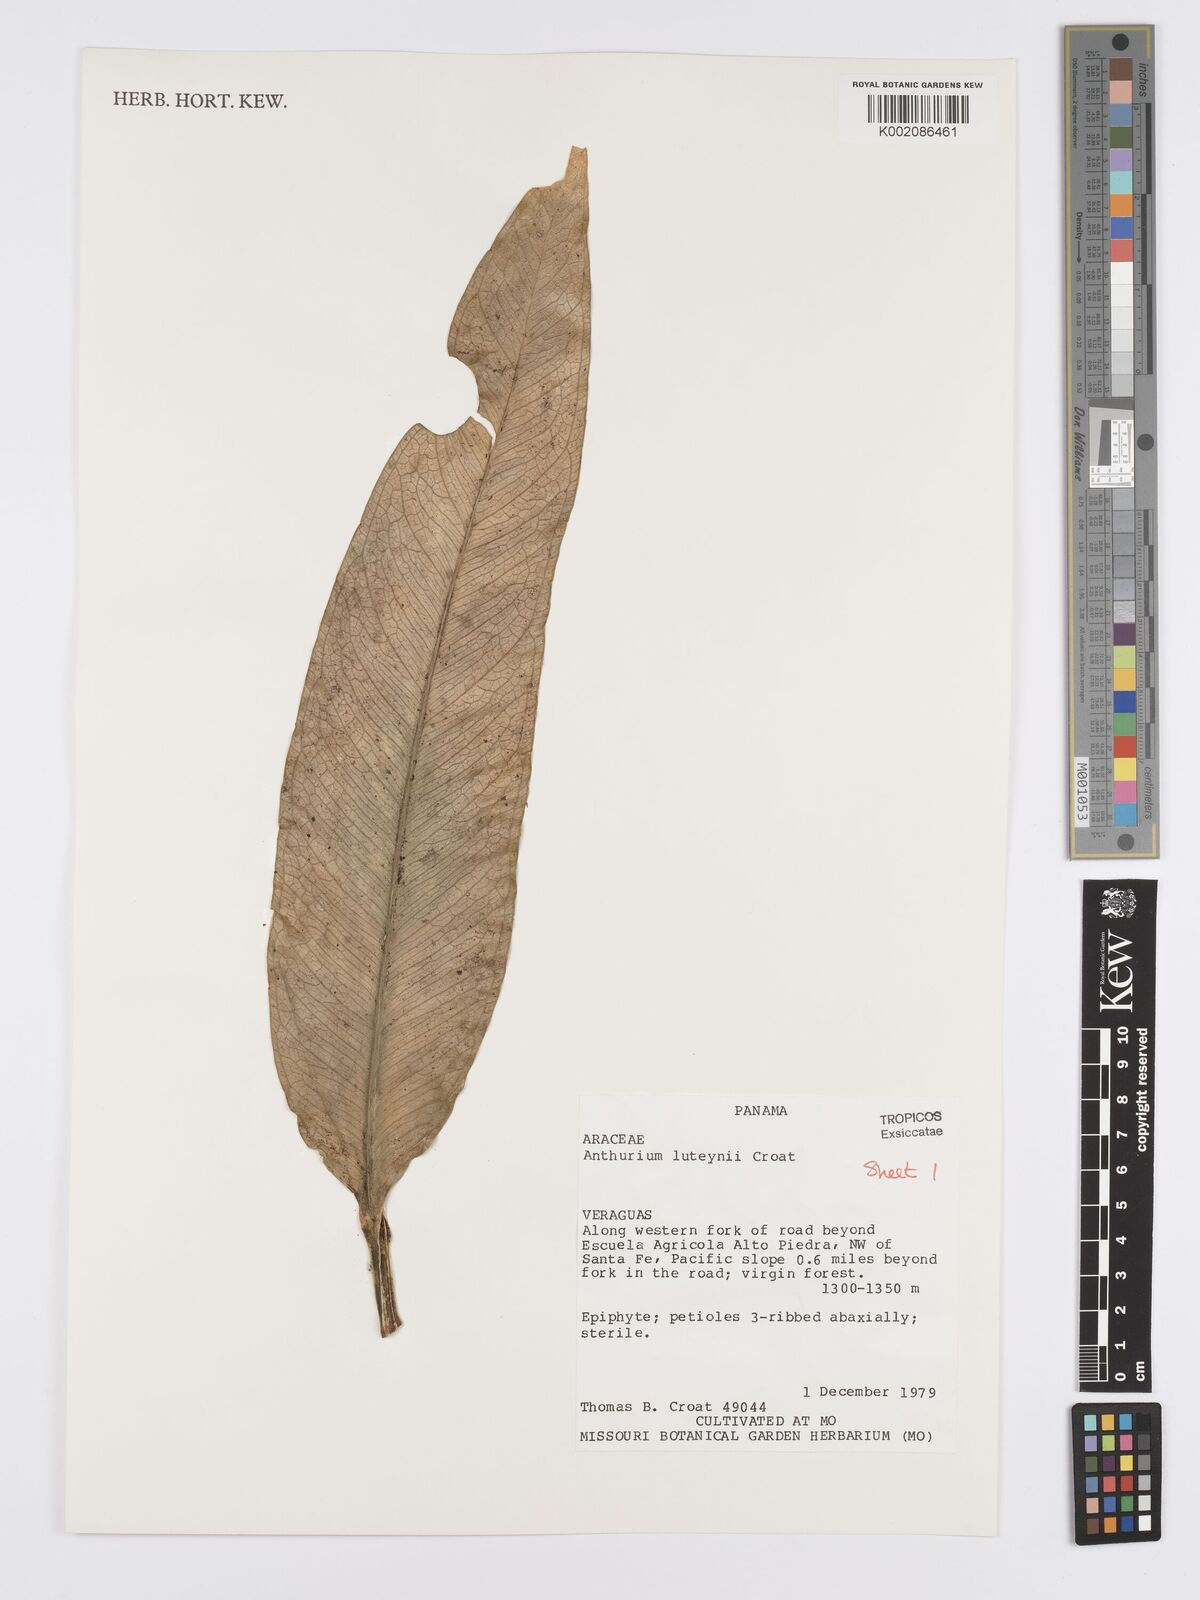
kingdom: Plantae
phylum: Tracheophyta
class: Liliopsida
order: Alismatales
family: Araceae
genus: Anthurium
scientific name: Anthurium luteynii
